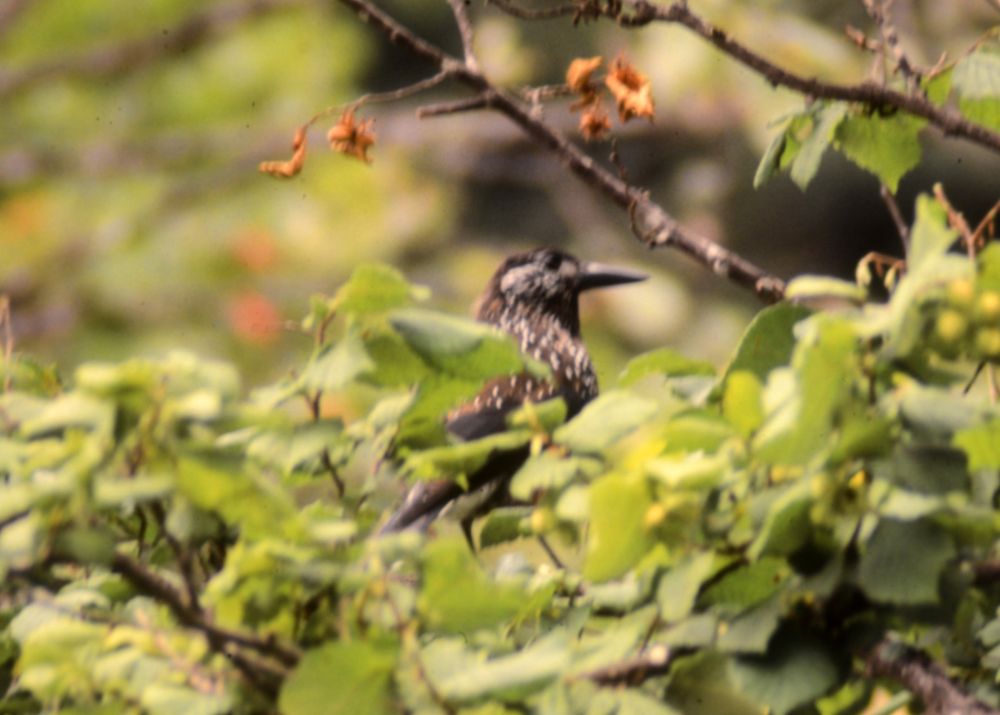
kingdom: Animalia
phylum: Chordata
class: Aves
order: Passeriformes
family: Corvidae
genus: Nucifraga
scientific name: Nucifraga caryocatactes
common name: Spotted nutcracker
